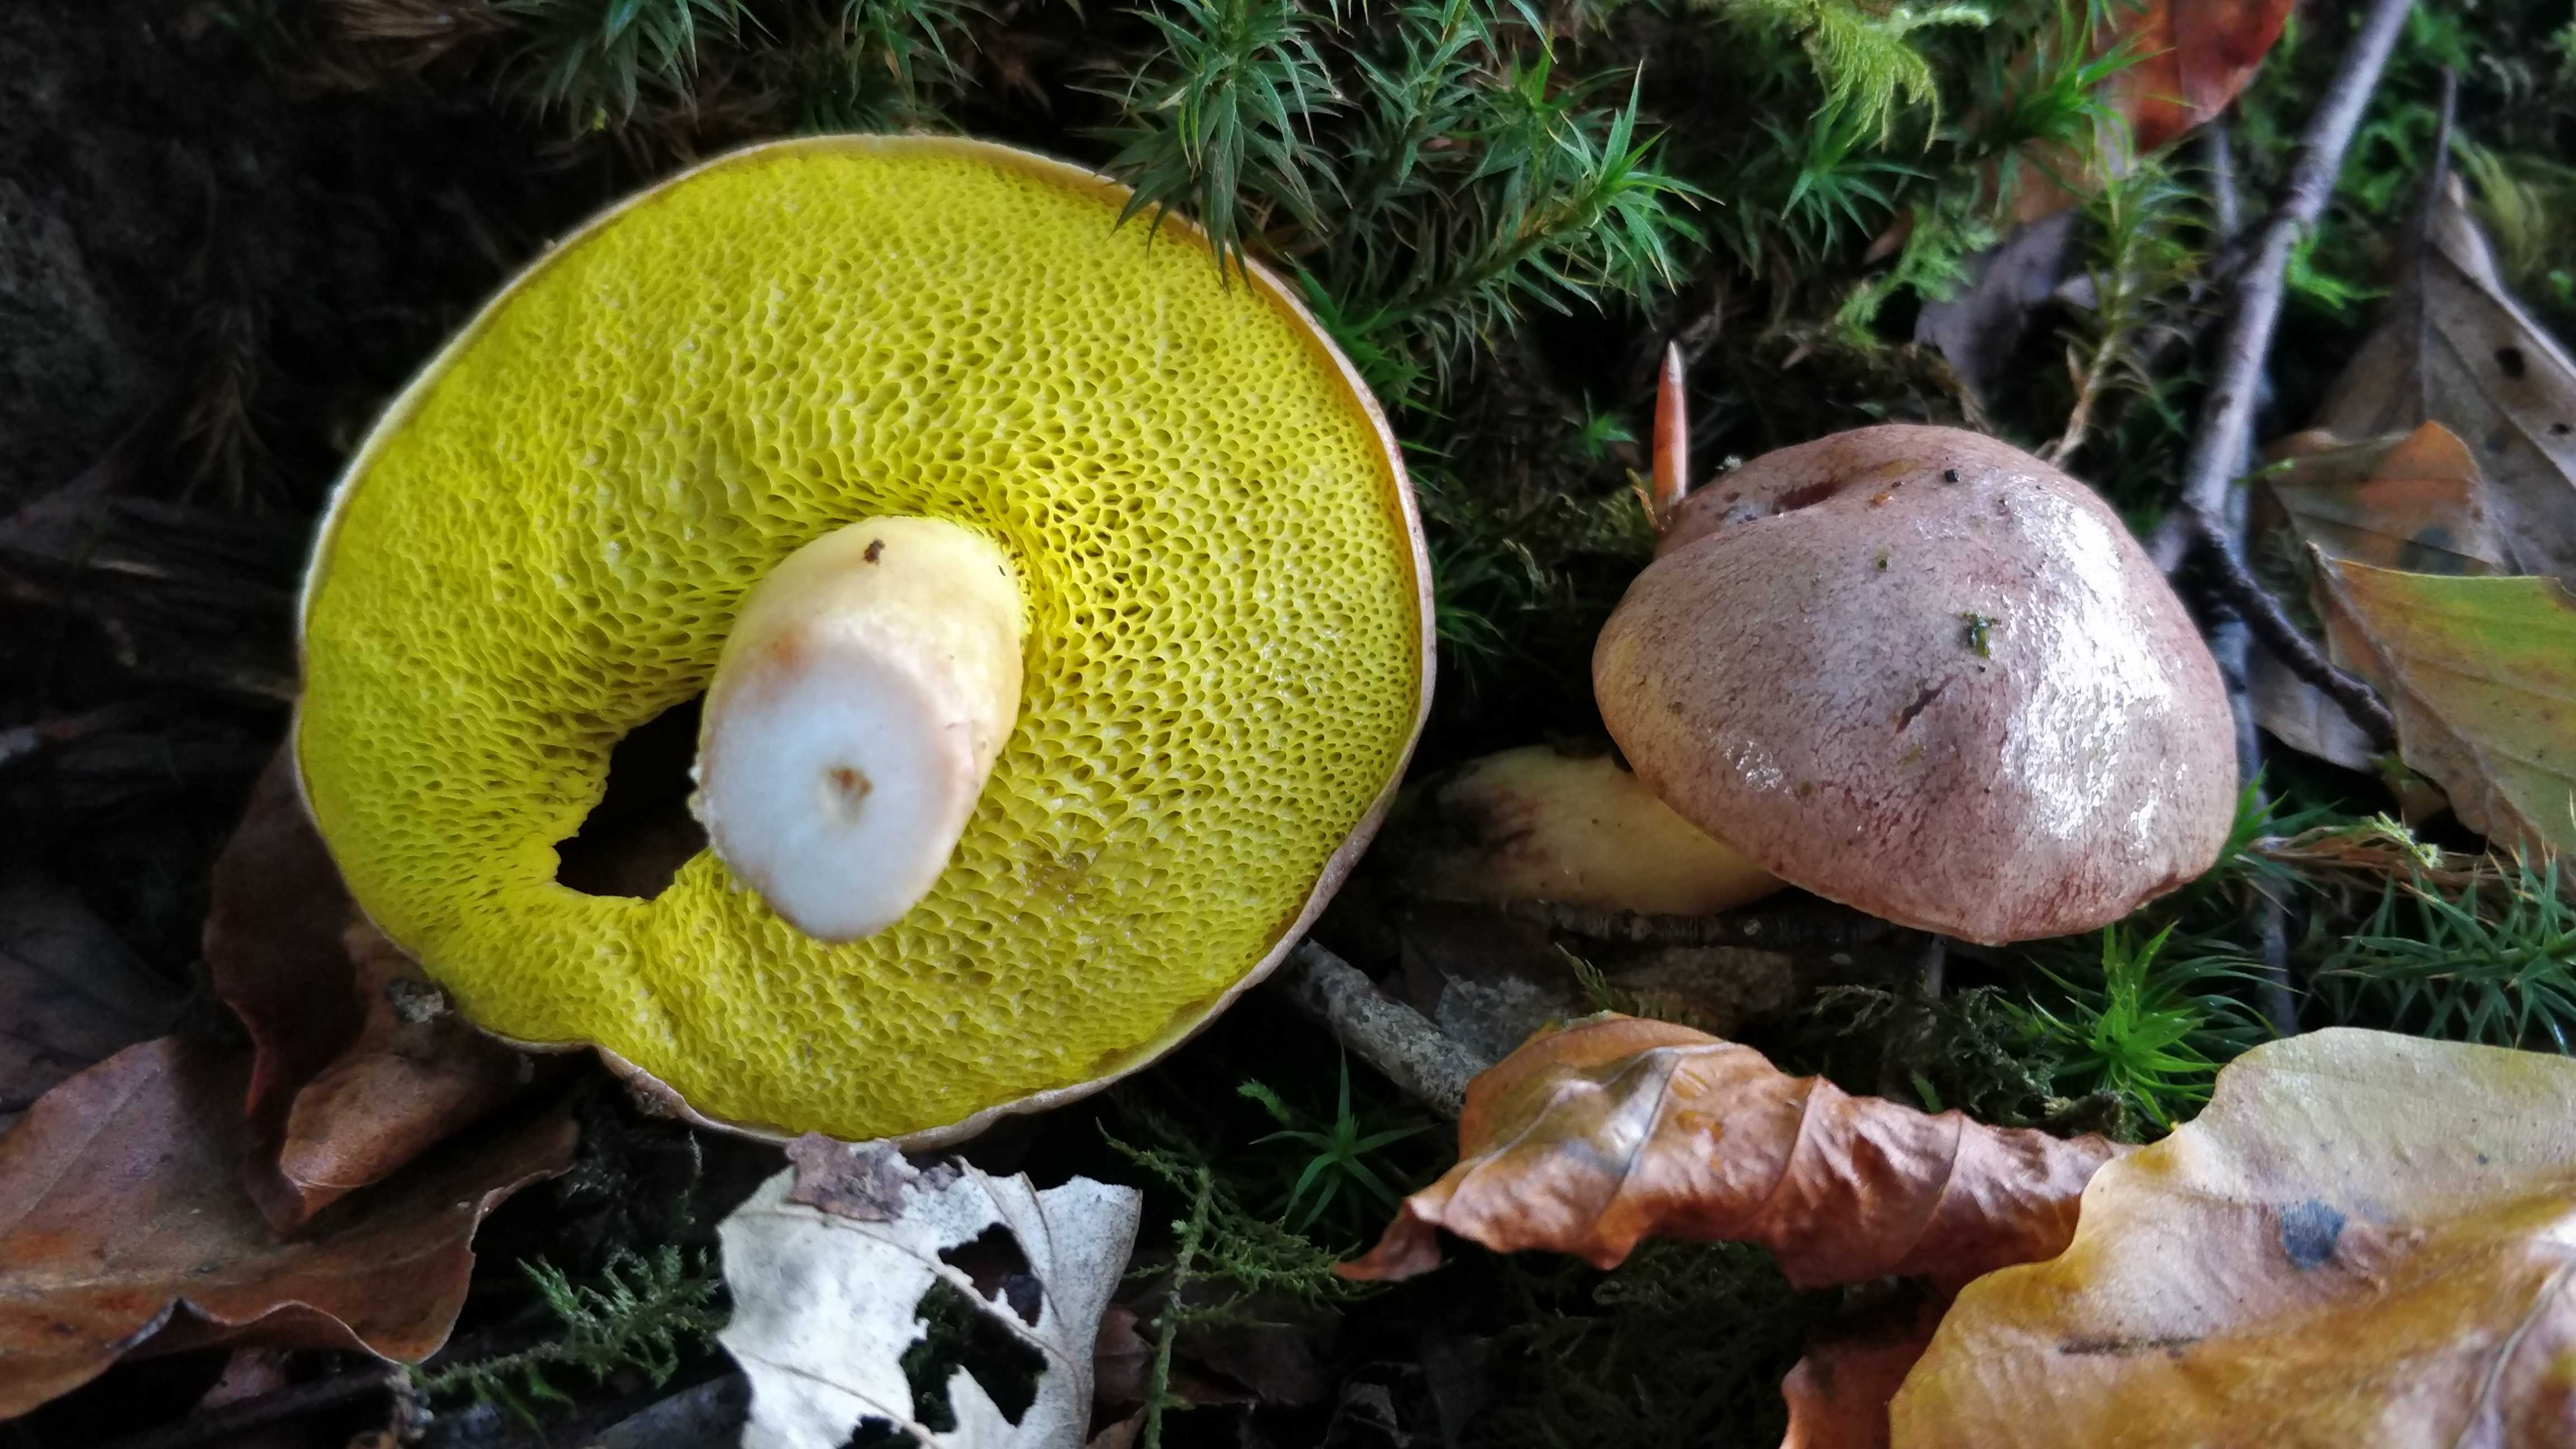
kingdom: Fungi
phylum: Basidiomycota
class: Agaricomycetes
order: Boletales
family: Boletaceae
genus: Aureoboletus
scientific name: Aureoboletus gentilis
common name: guldrørhat
